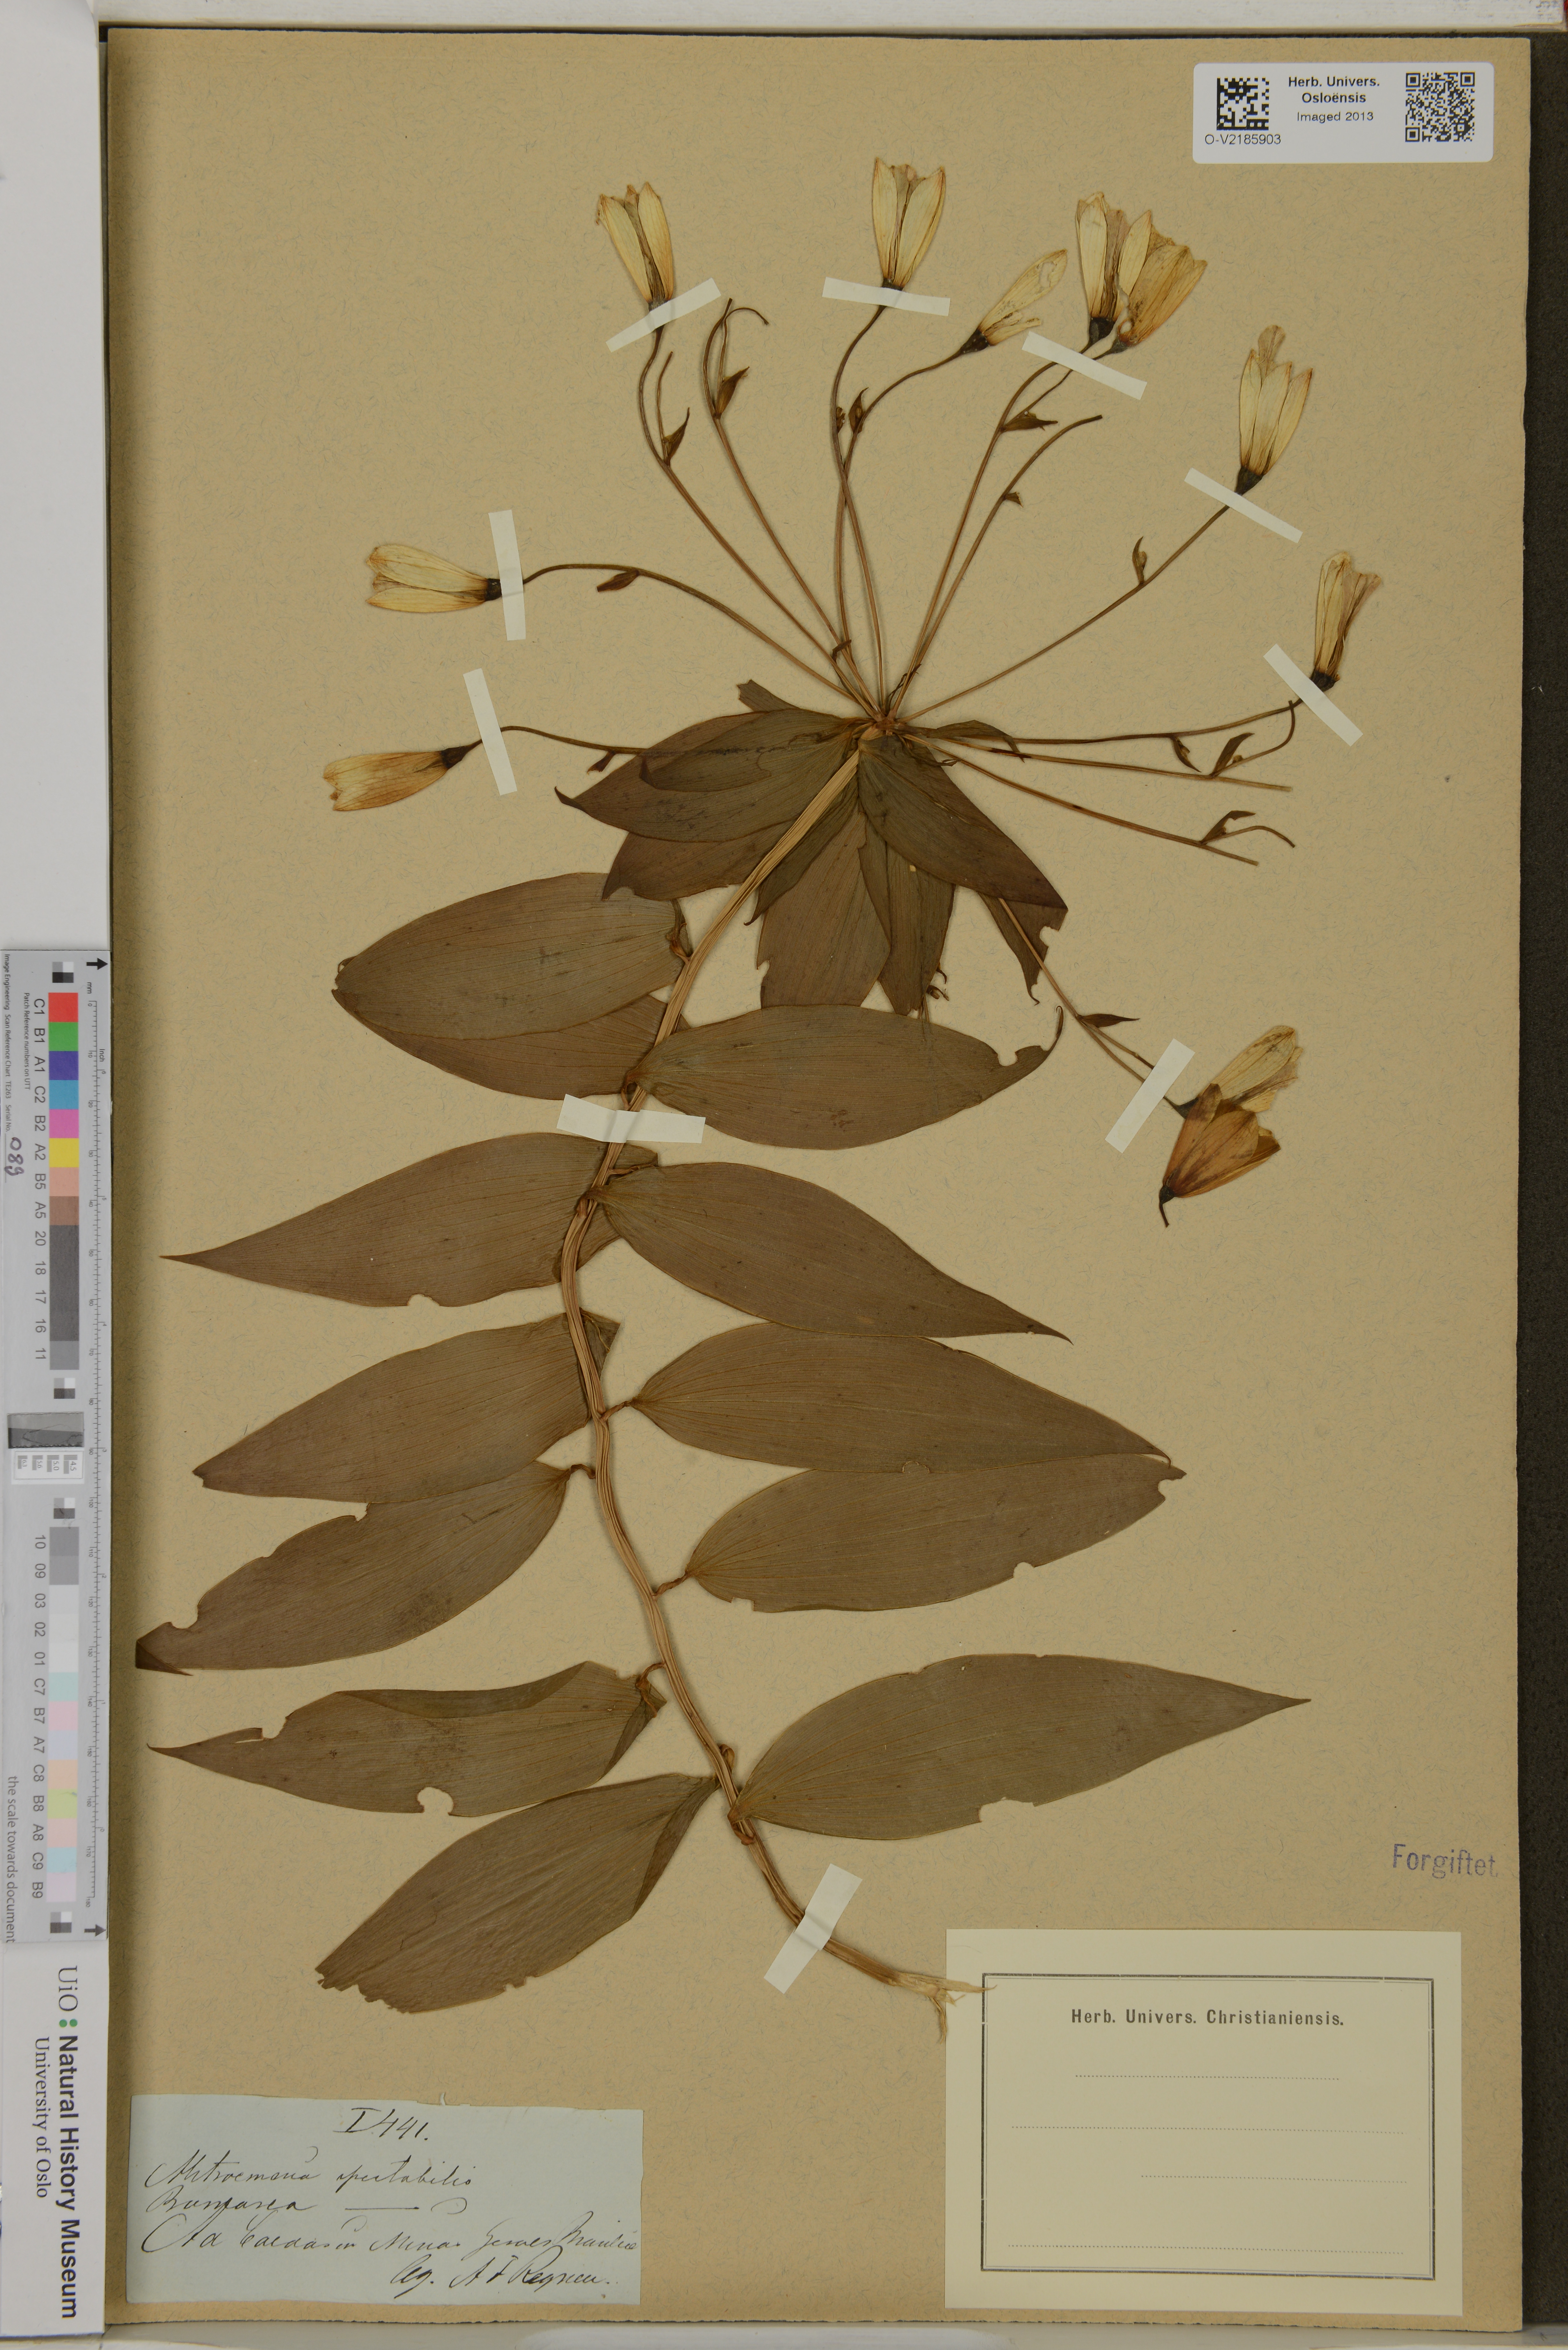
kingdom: Plantae
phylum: Tracheophyta
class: Liliopsida
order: Liliales
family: Alstroemeriaceae
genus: Alstroemeria
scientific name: Alstroemeria spectabilis
